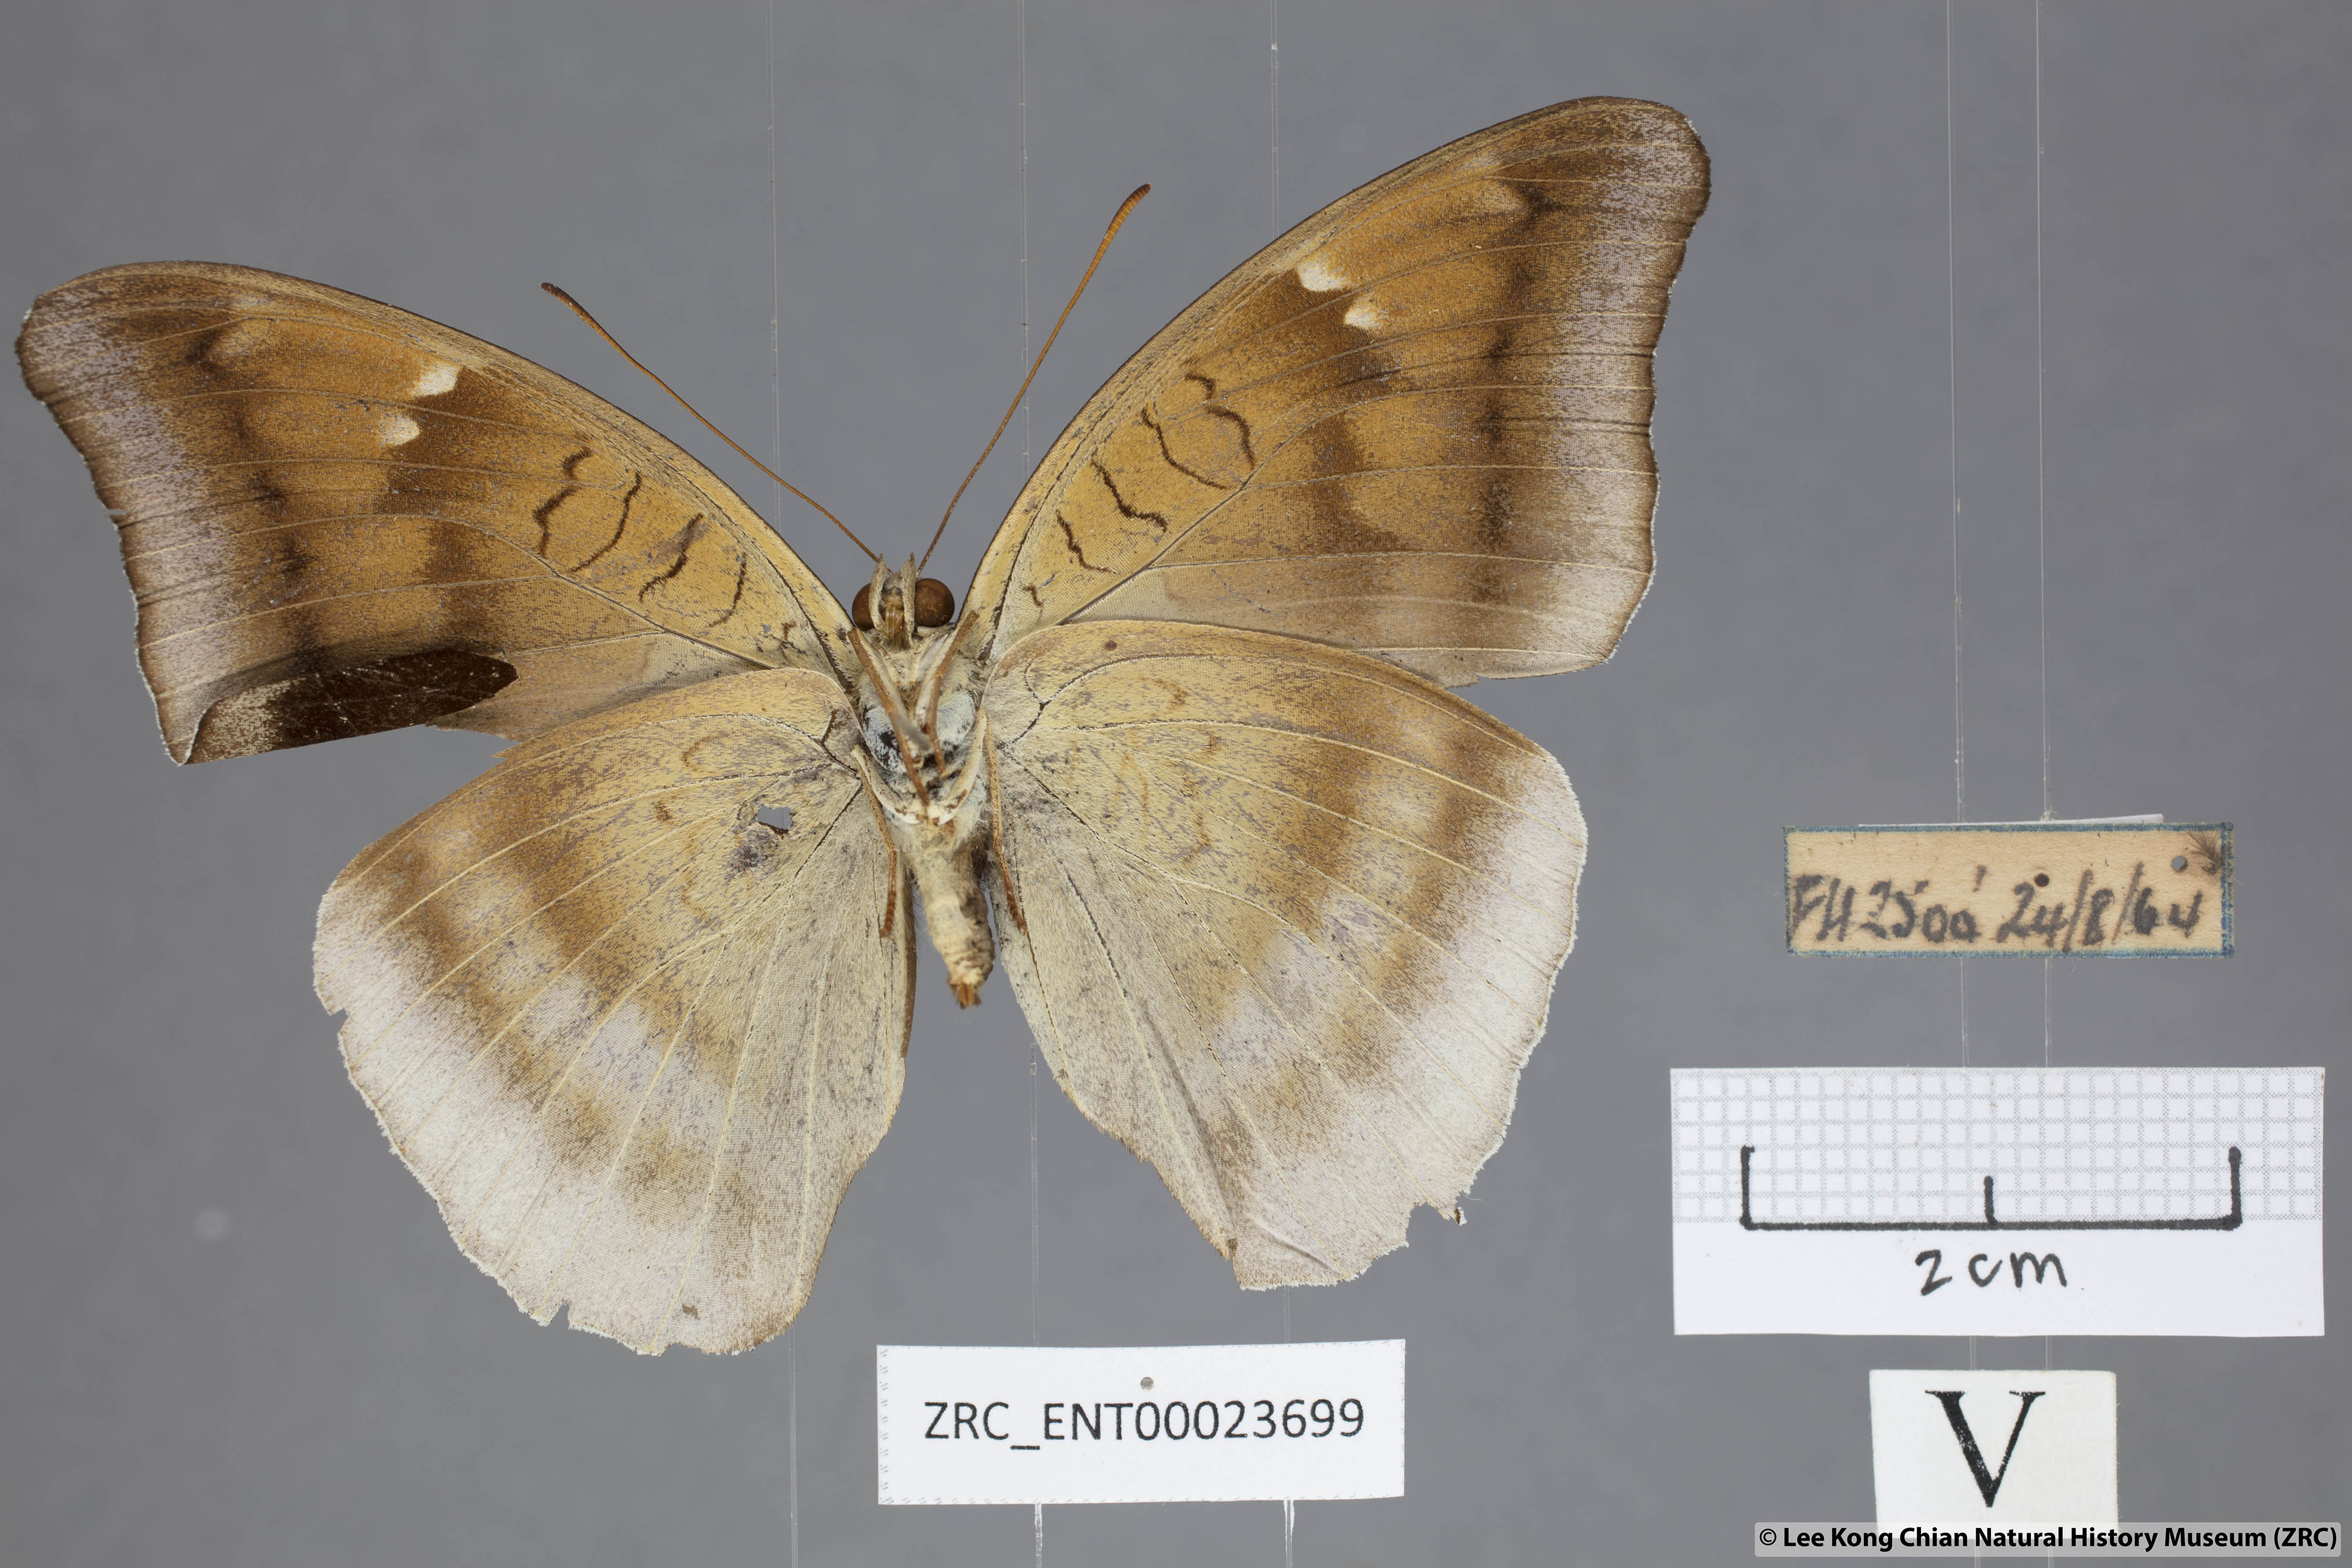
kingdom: Animalia
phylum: Arthropoda
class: Insecta
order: Lepidoptera
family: Nymphalidae
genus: Tanaecia
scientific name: Tanaecia lepidea
